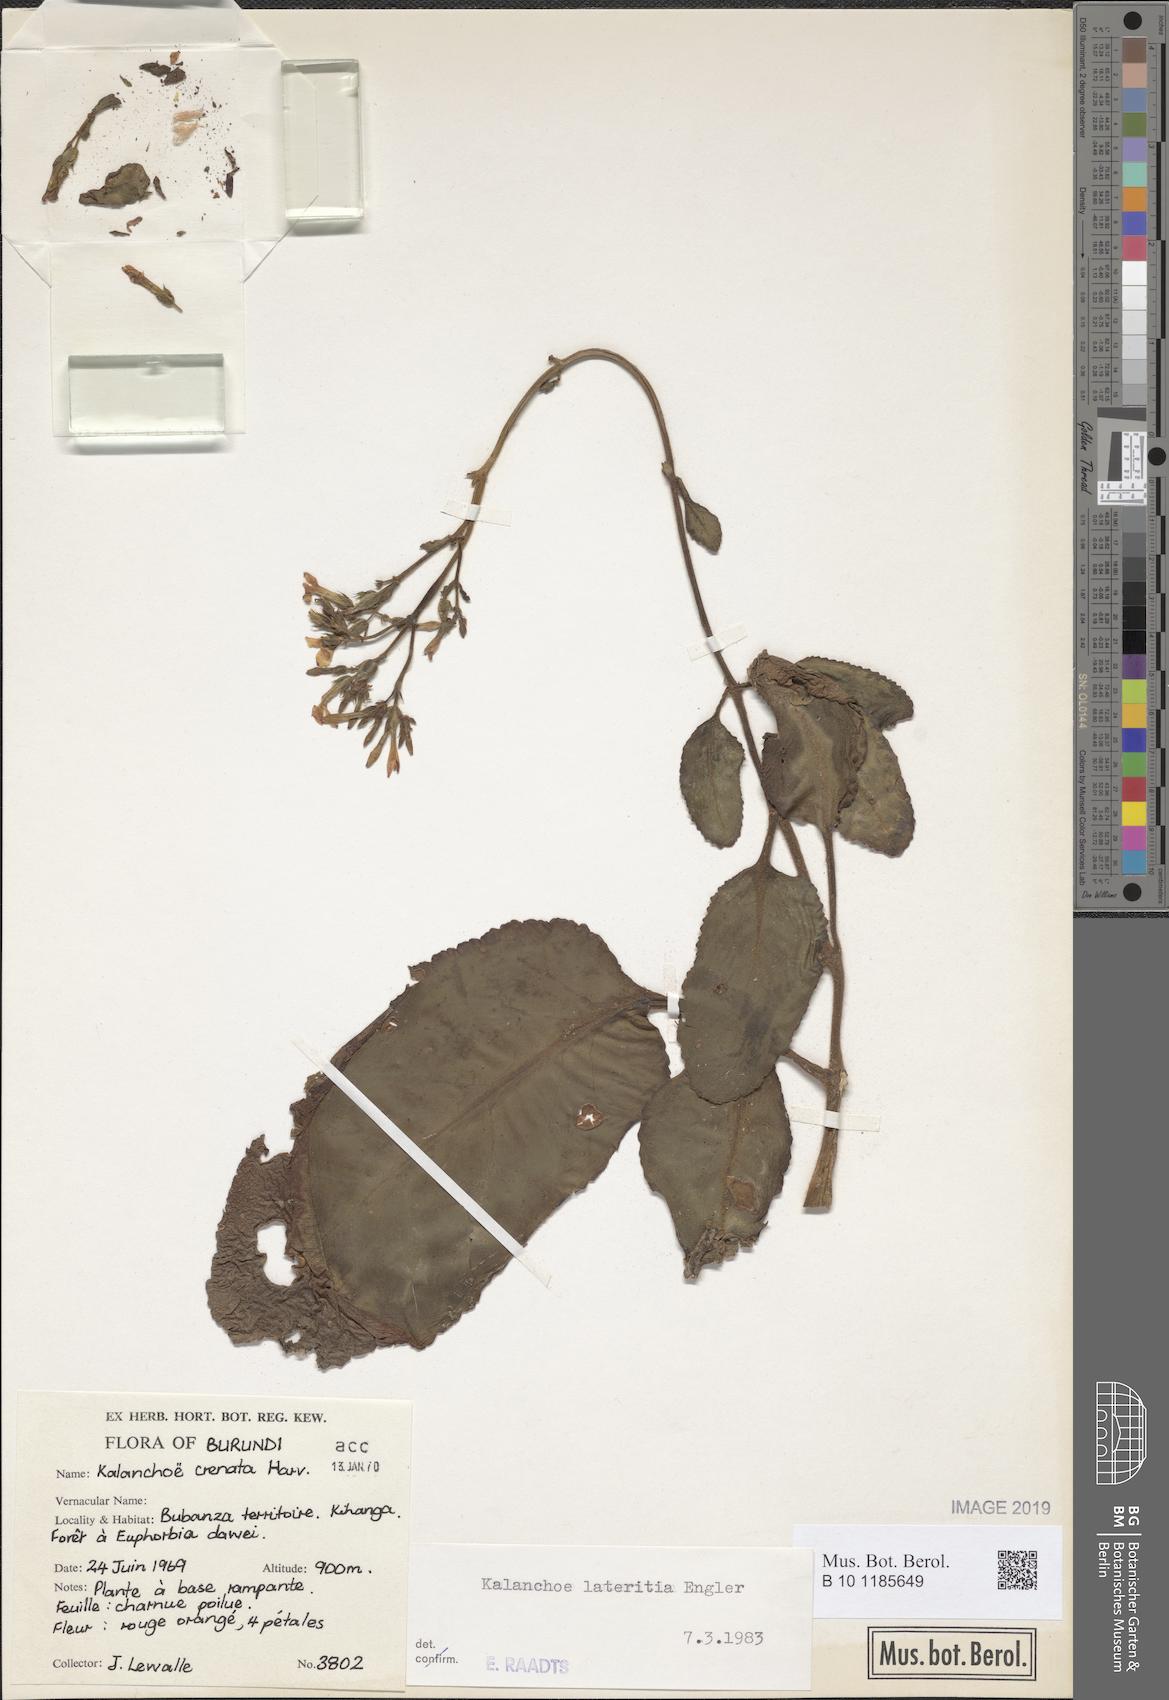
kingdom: Plantae
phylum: Tracheophyta
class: Magnoliopsida
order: Saxifragales
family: Crassulaceae
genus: Kalanchoe
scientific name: Kalanchoe lateritia
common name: Kalanchoe
